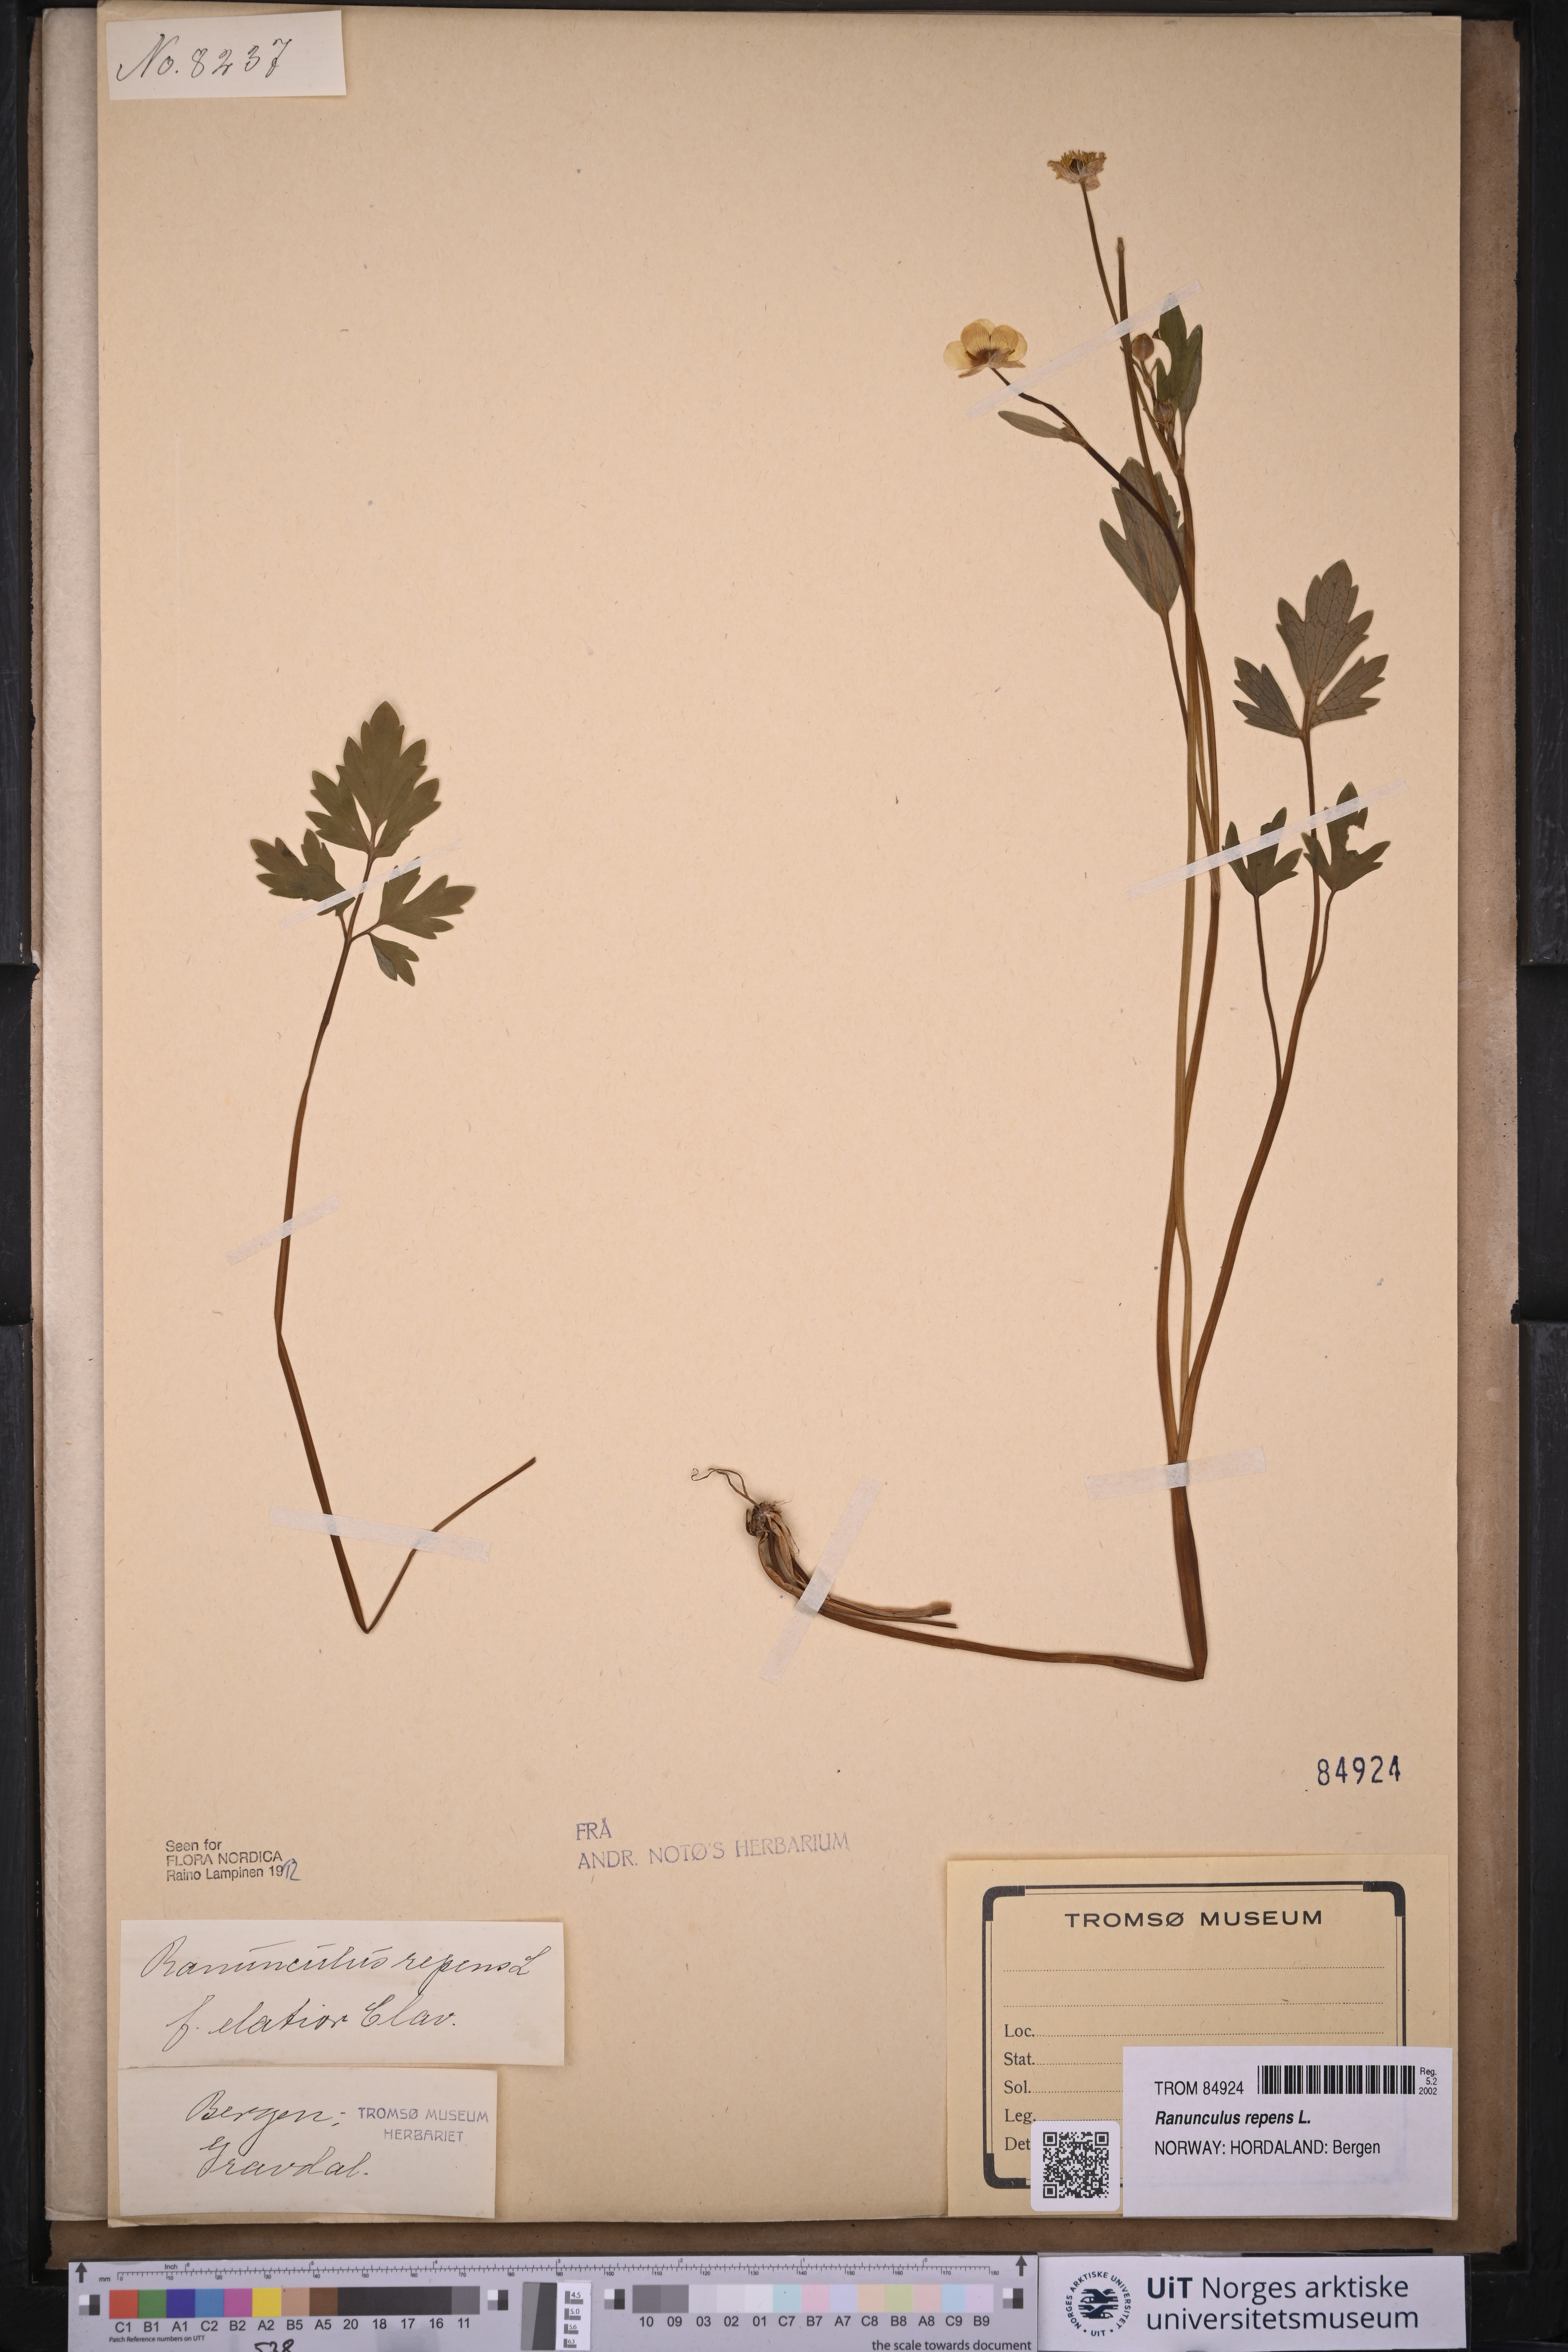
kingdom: Plantae
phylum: Tracheophyta
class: Magnoliopsida
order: Ranunculales
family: Ranunculaceae
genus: Ranunculus
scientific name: Ranunculus repens
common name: Creeping buttercup
